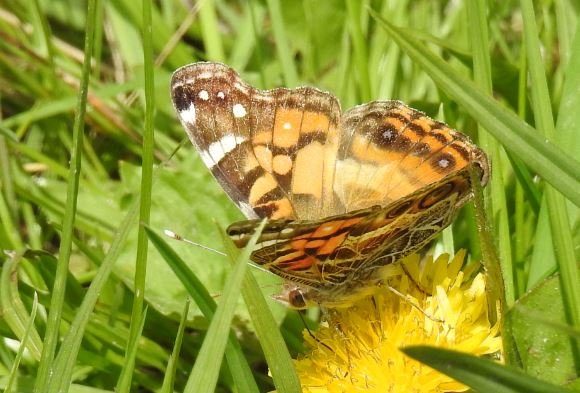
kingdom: Animalia
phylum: Arthropoda
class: Insecta
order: Lepidoptera
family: Nymphalidae
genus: Vanessa
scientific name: Vanessa virginiensis
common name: American Lady
